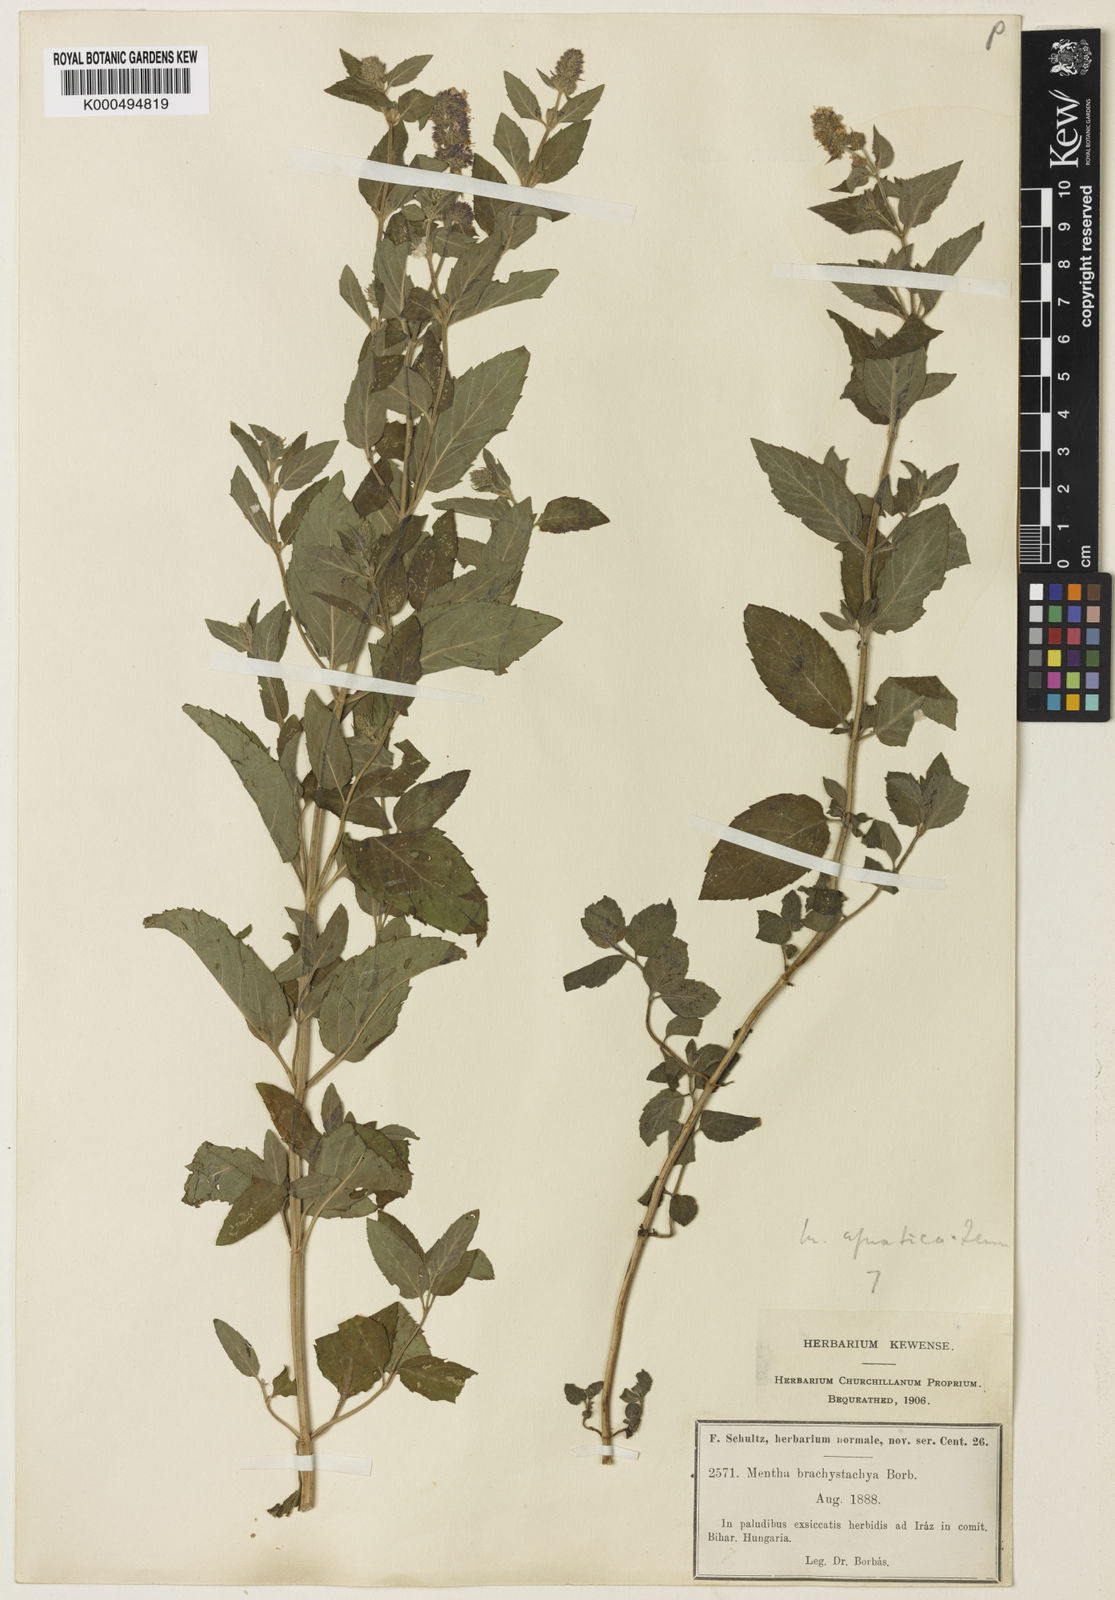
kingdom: Plantae
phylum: Tracheophyta
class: Magnoliopsida
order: Lamiales
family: Lamiaceae
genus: Mentha
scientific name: Mentha aquatica
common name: Water mint
